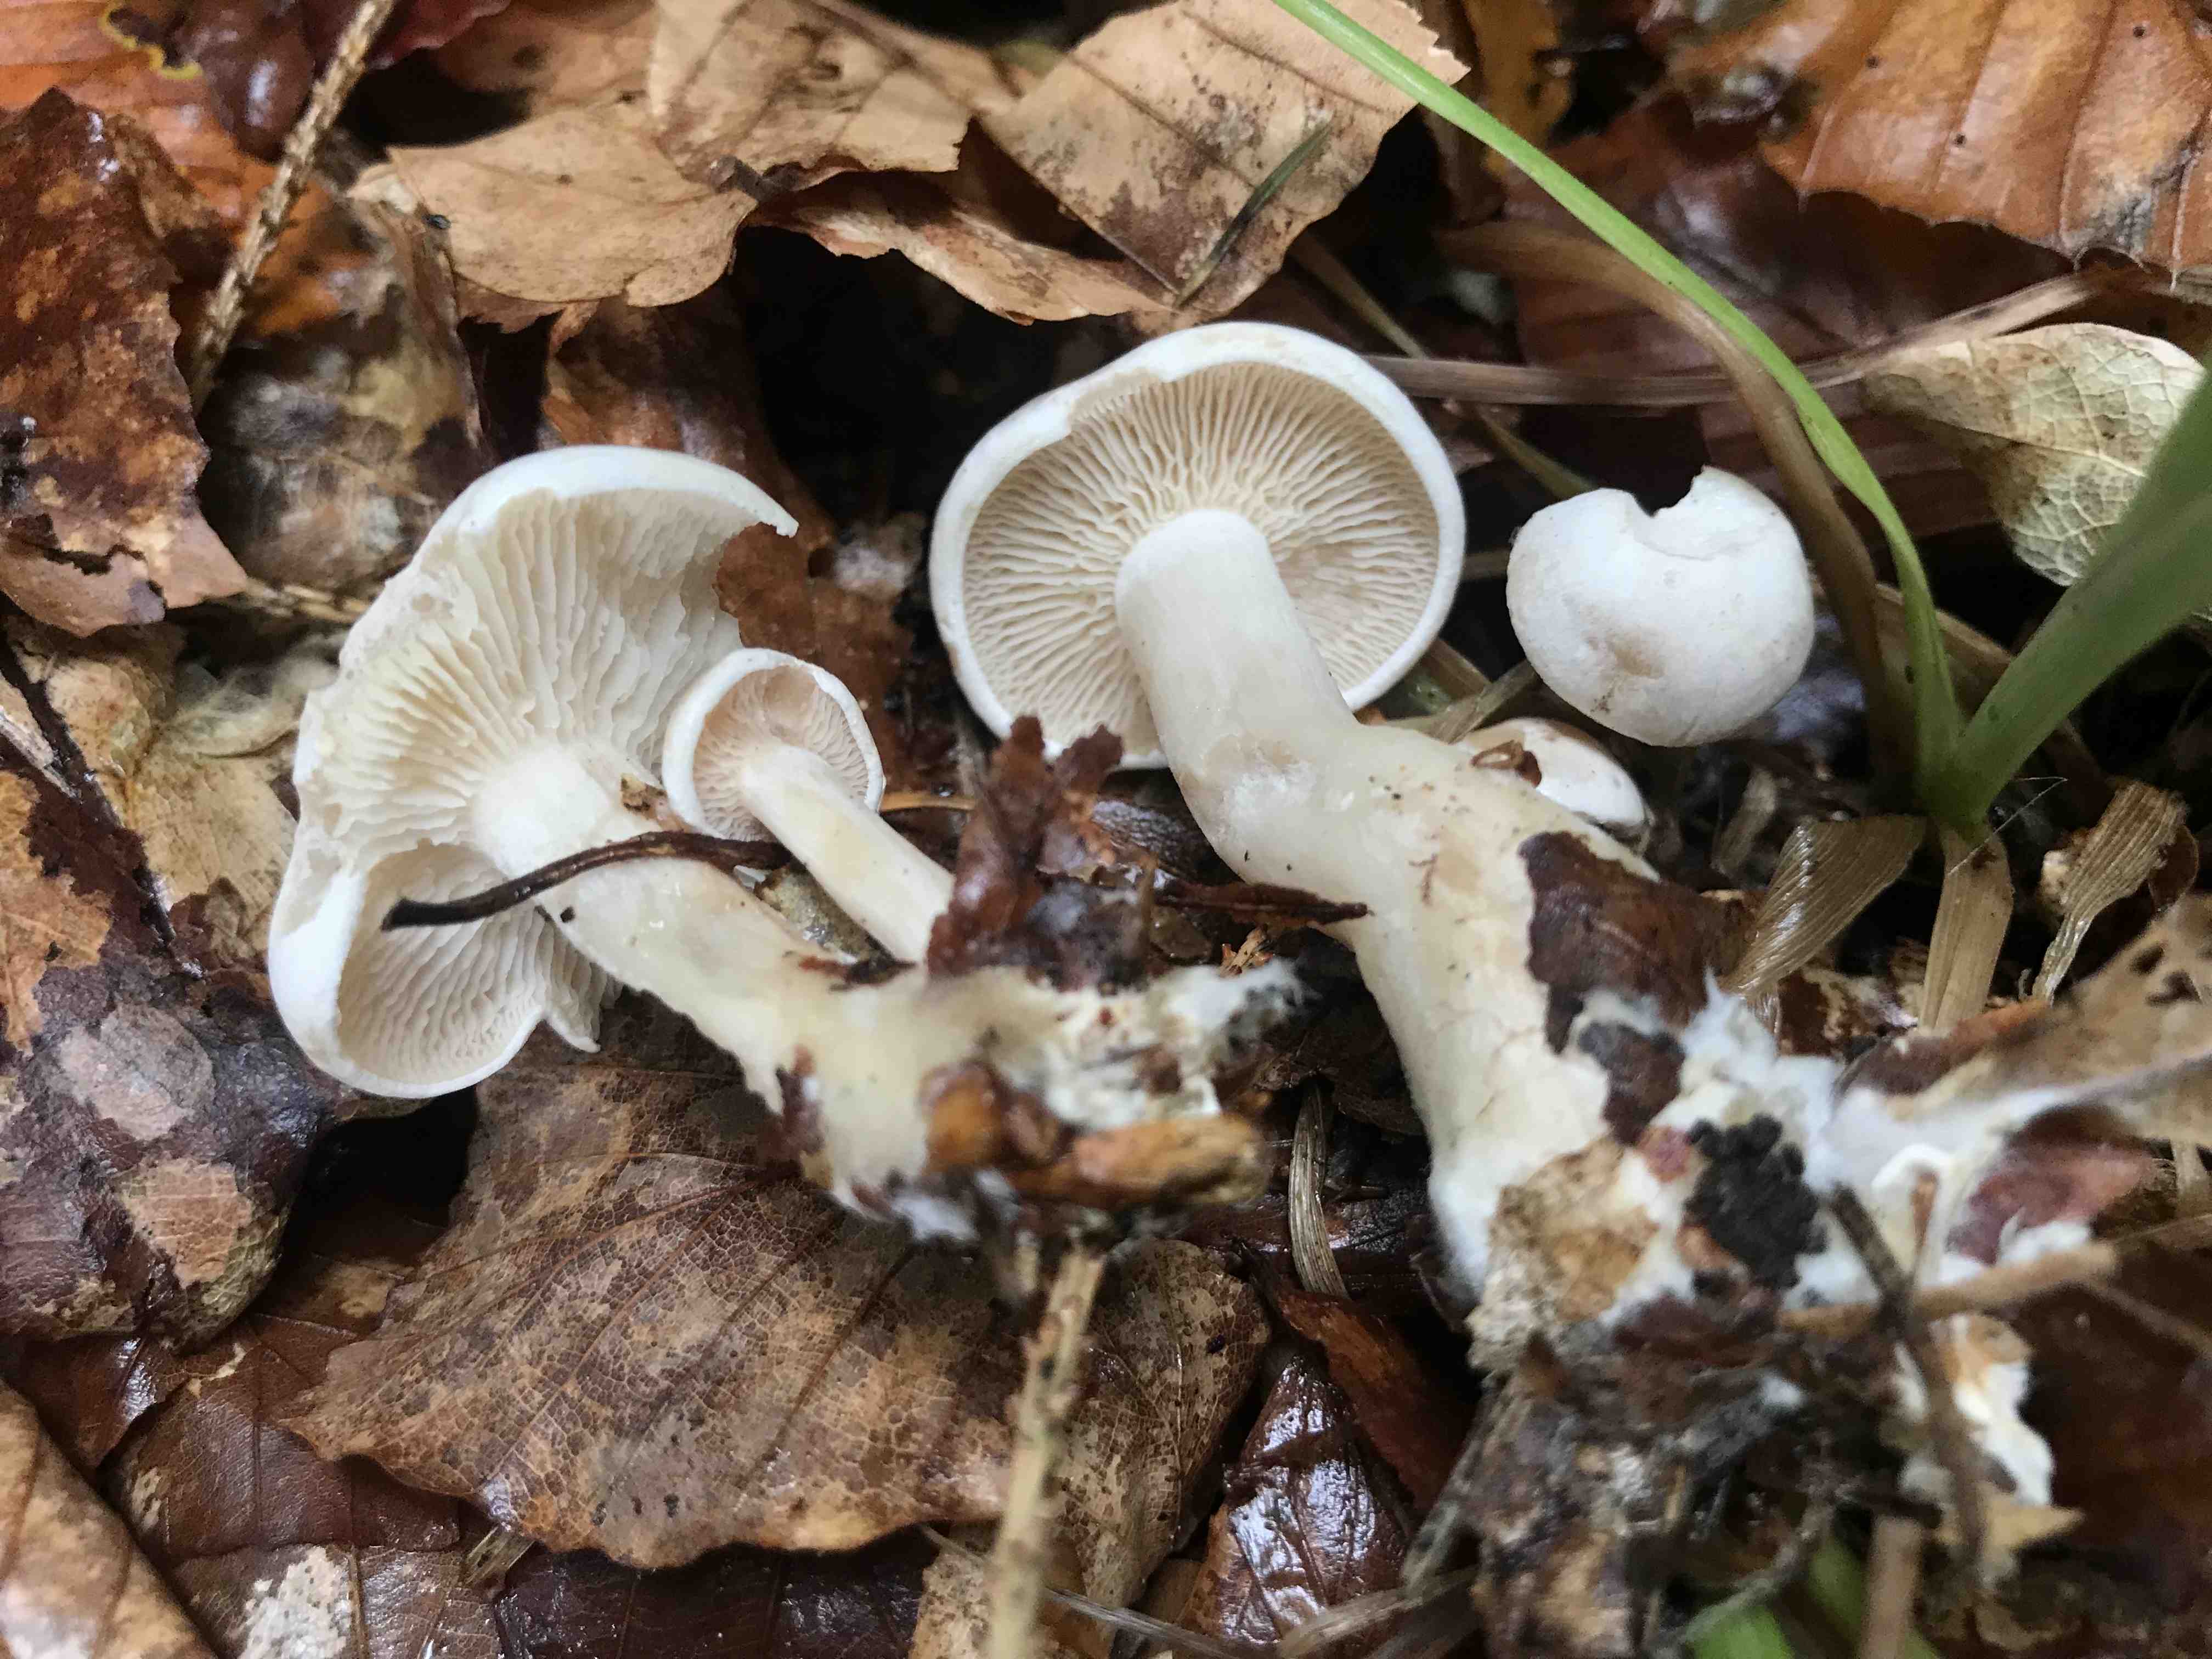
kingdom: Fungi
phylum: Basidiomycota
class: Agaricomycetes
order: Agaricales
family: Tricholomataceae
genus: Clitocybe
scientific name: Clitocybe phyllophila
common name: løv-tragthat
